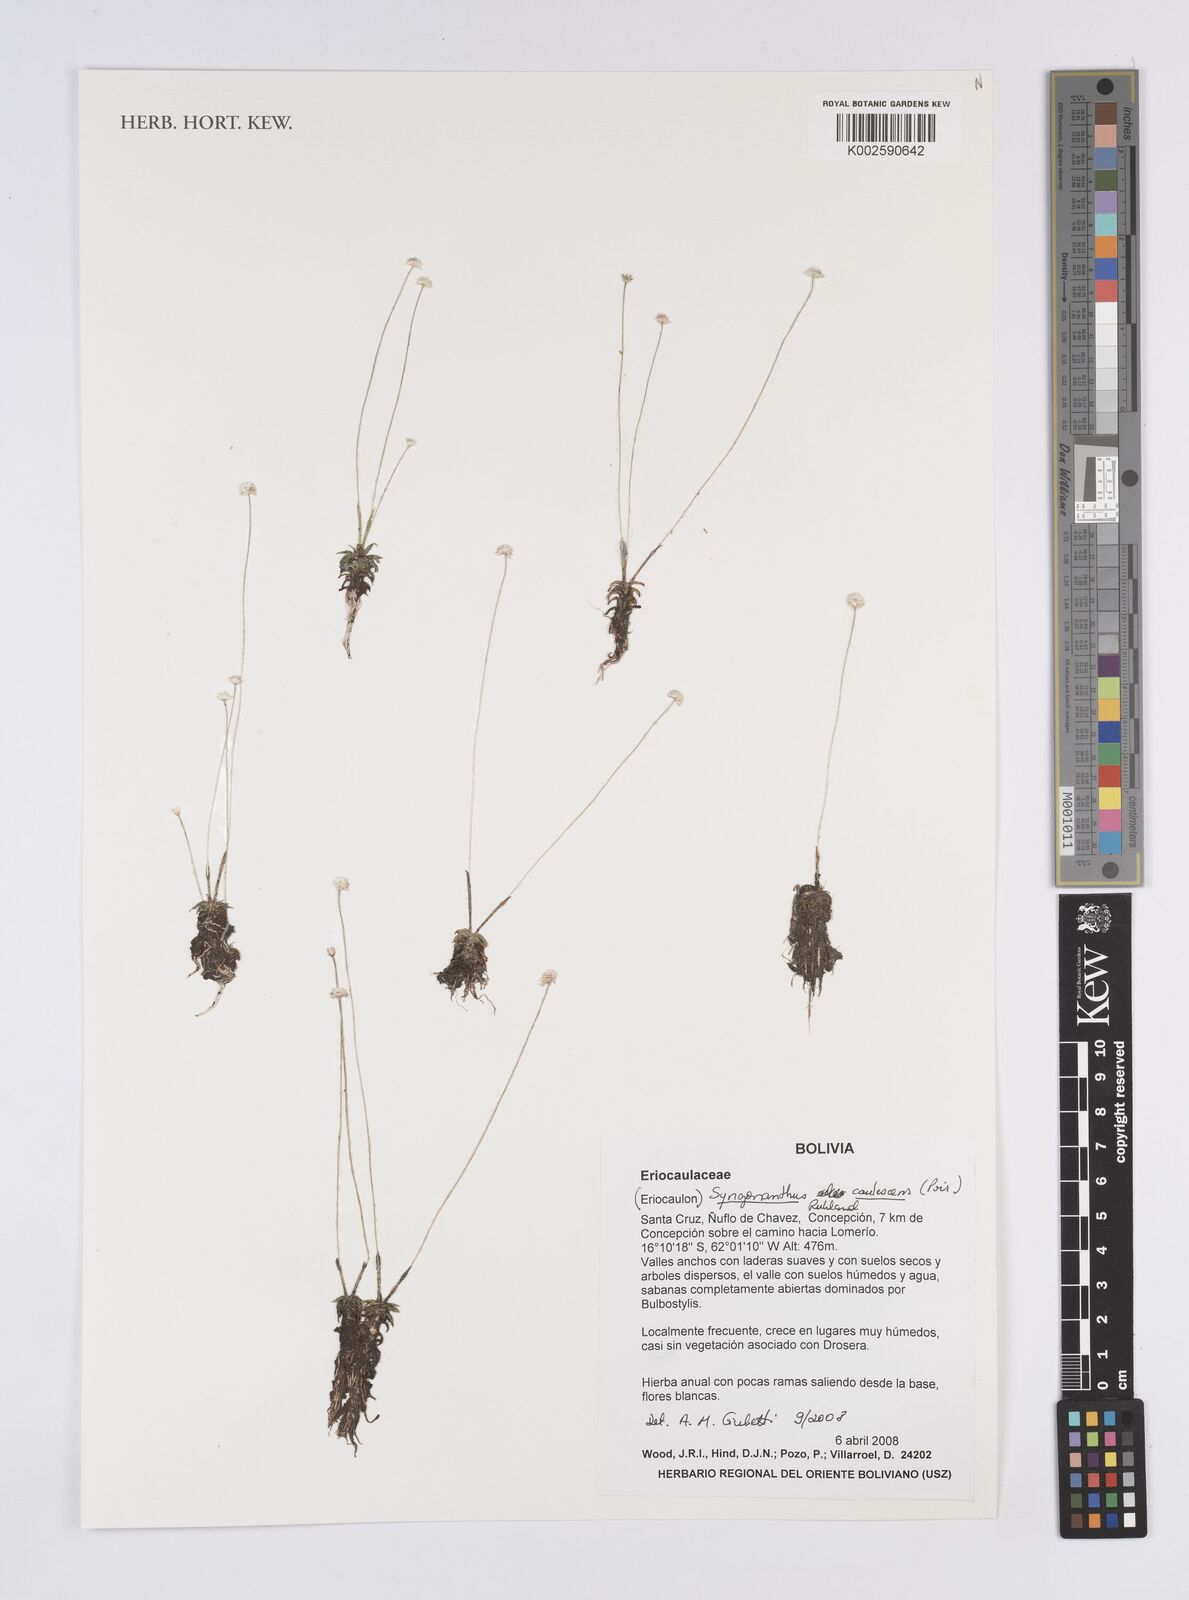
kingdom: Plantae
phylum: Tracheophyta
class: Liliopsida
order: Poales
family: Eriocaulaceae
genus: Syngonanthus
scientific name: Syngonanthus caulescens
